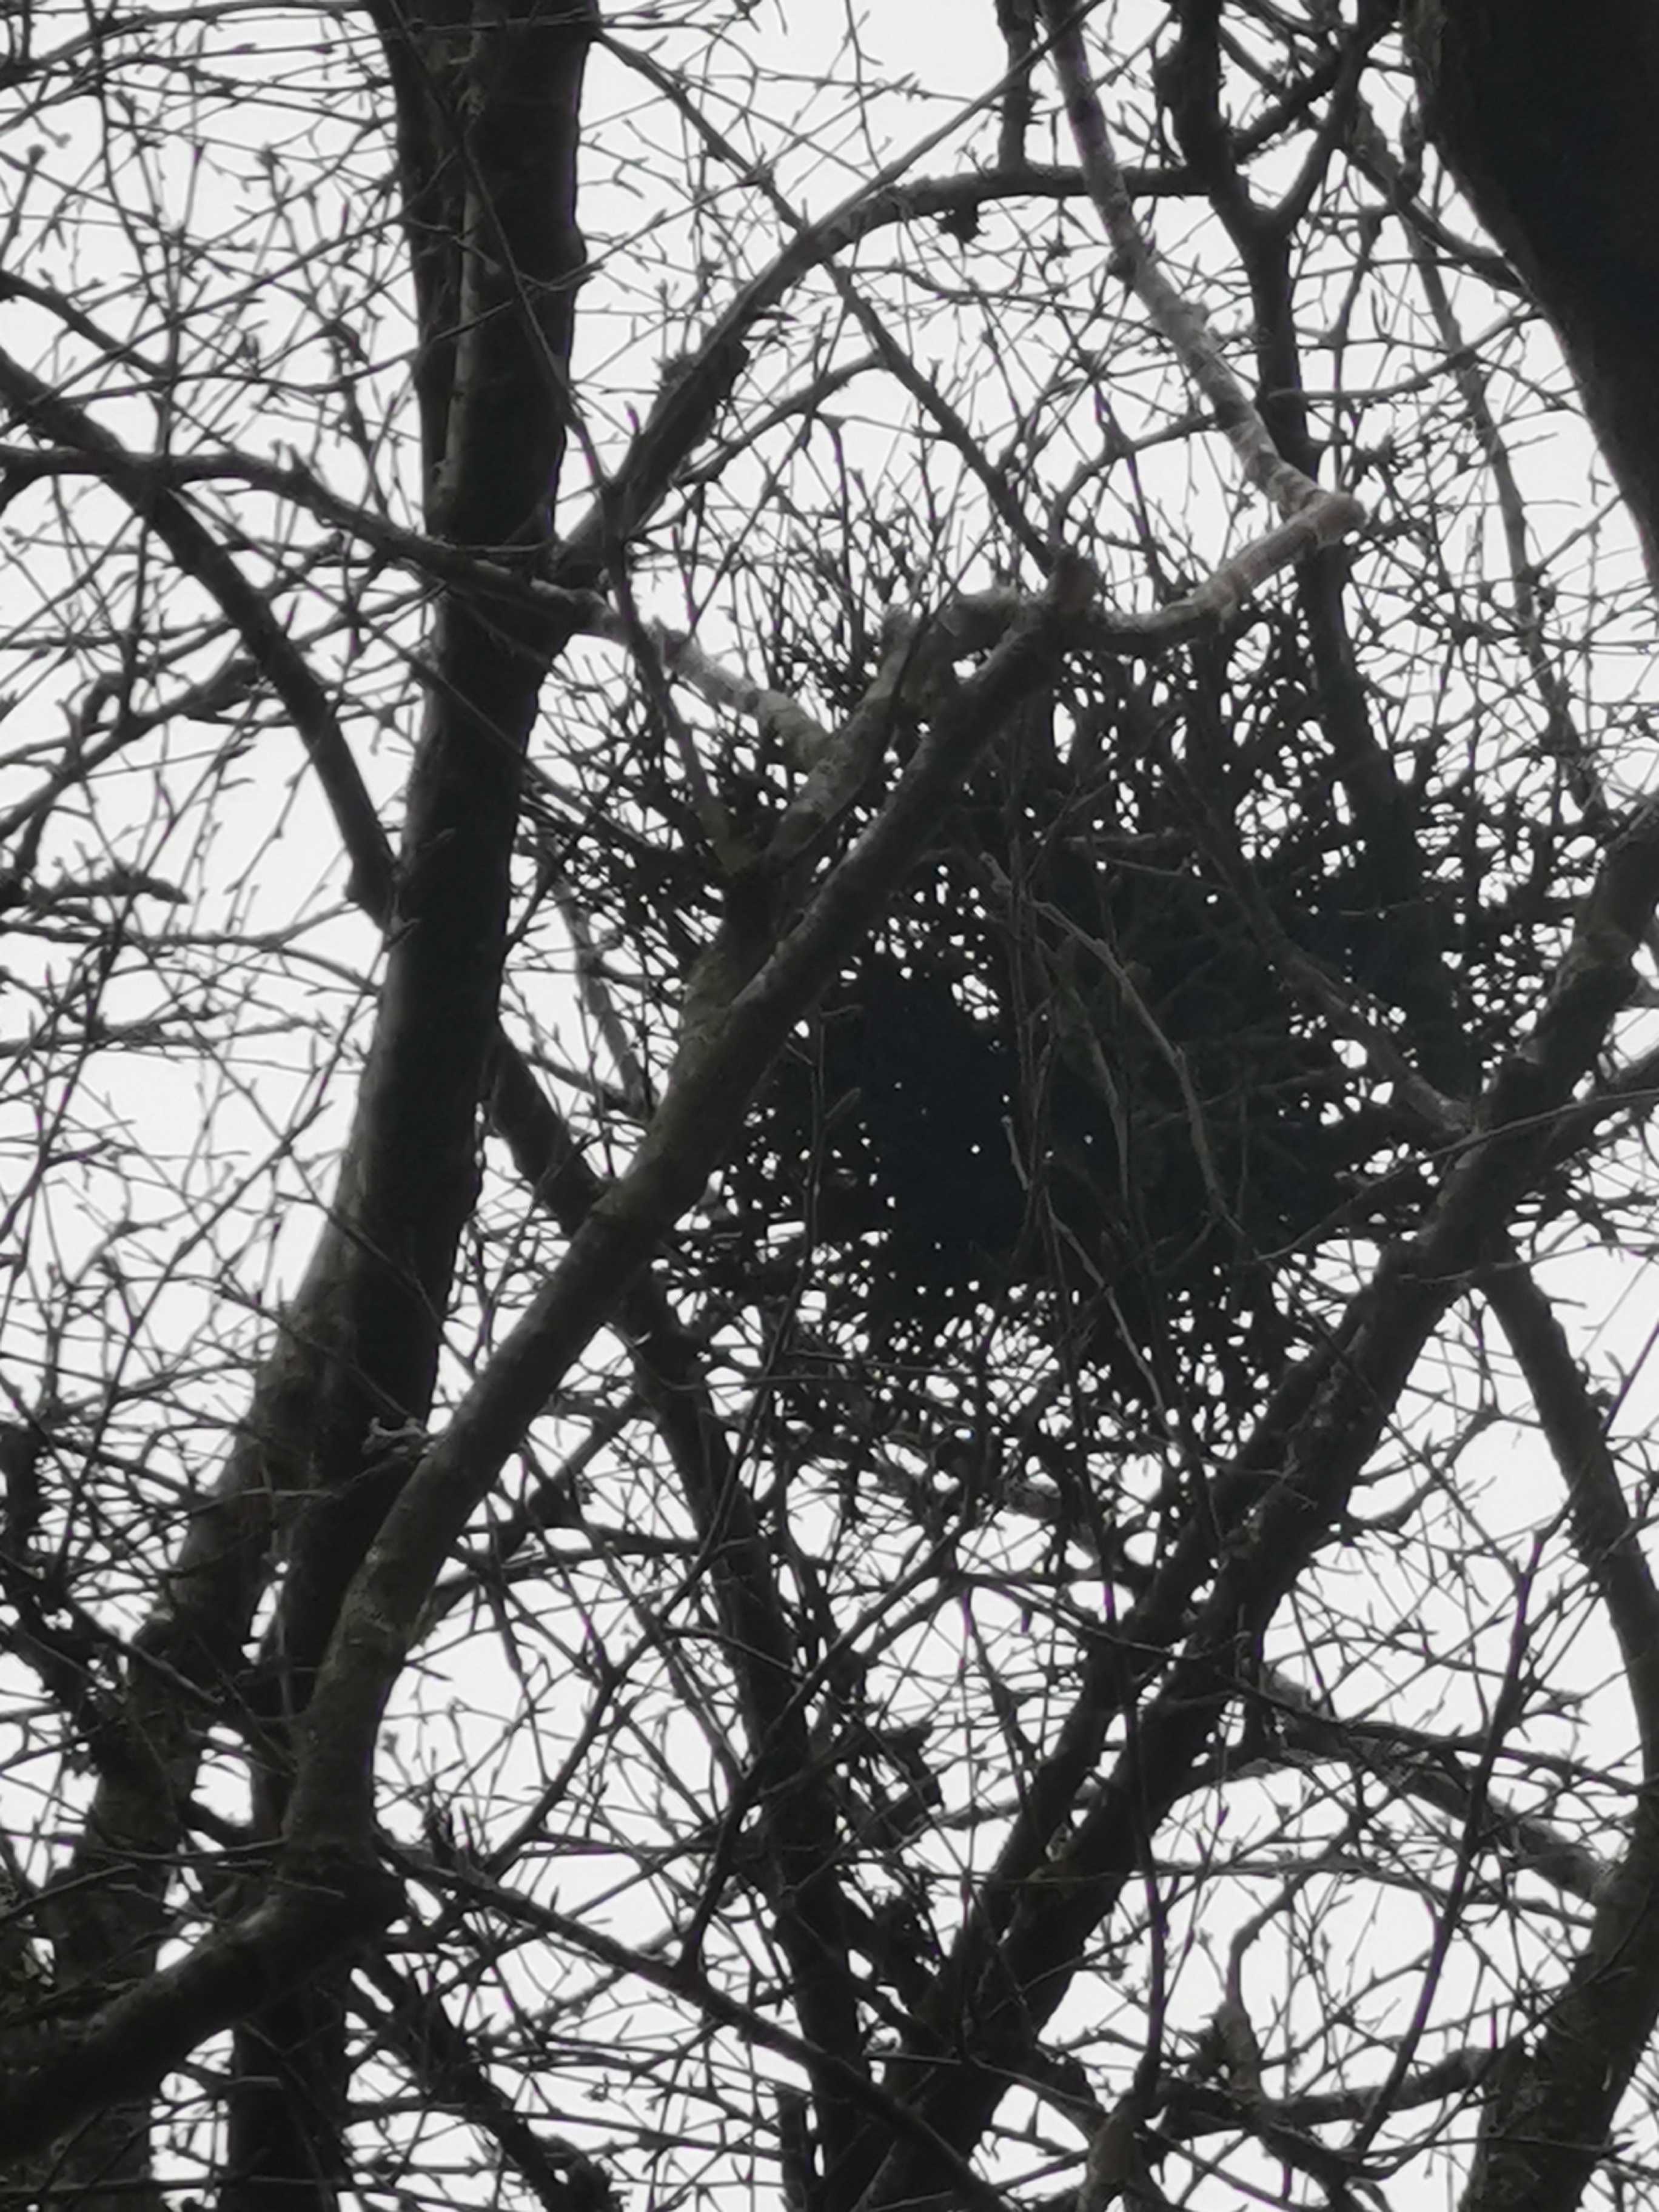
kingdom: Fungi
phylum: Ascomycota
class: Taphrinomycetes
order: Taphrinales
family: Taphrinaceae
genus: Taphrina
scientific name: Taphrina betulina
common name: hekse-sækdug
